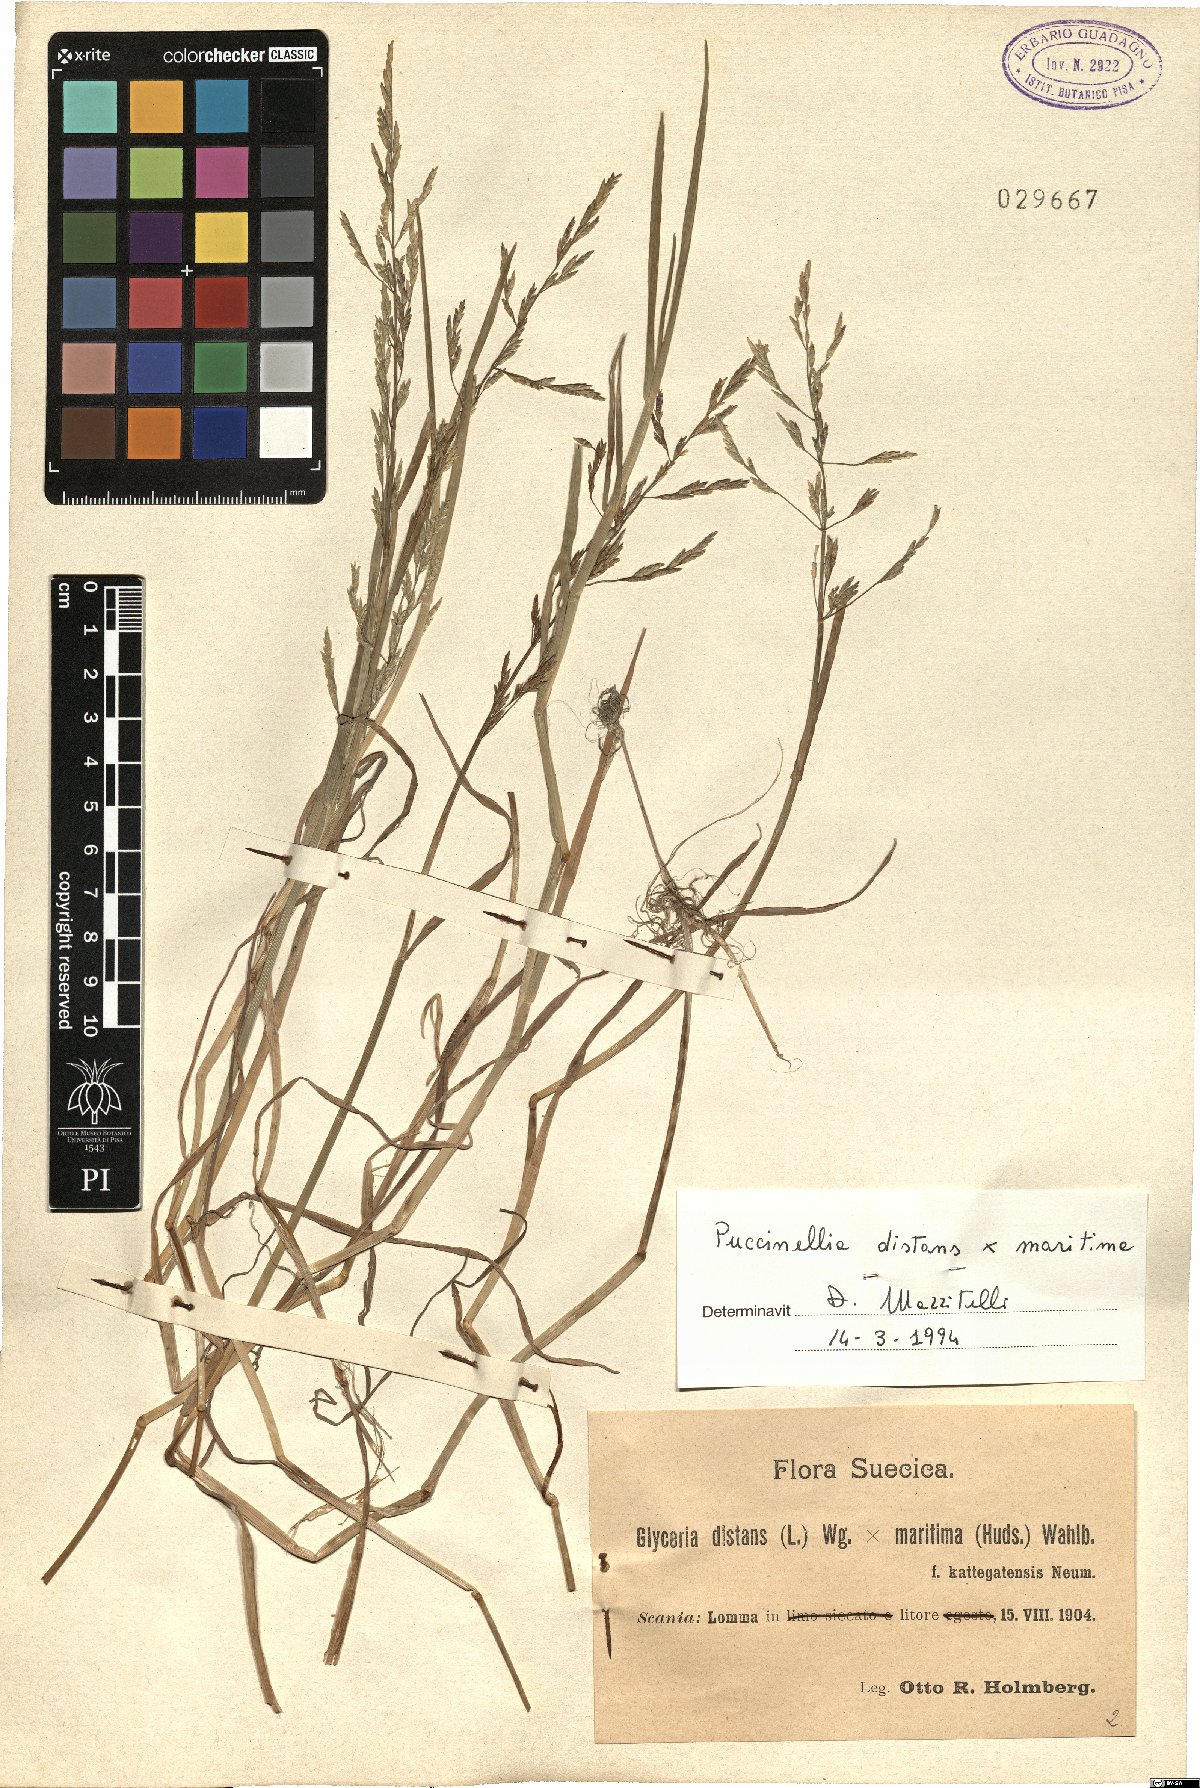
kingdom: Plantae
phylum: Tracheophyta
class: Liliopsida
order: Poales
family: Poaceae
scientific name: Poaceae
